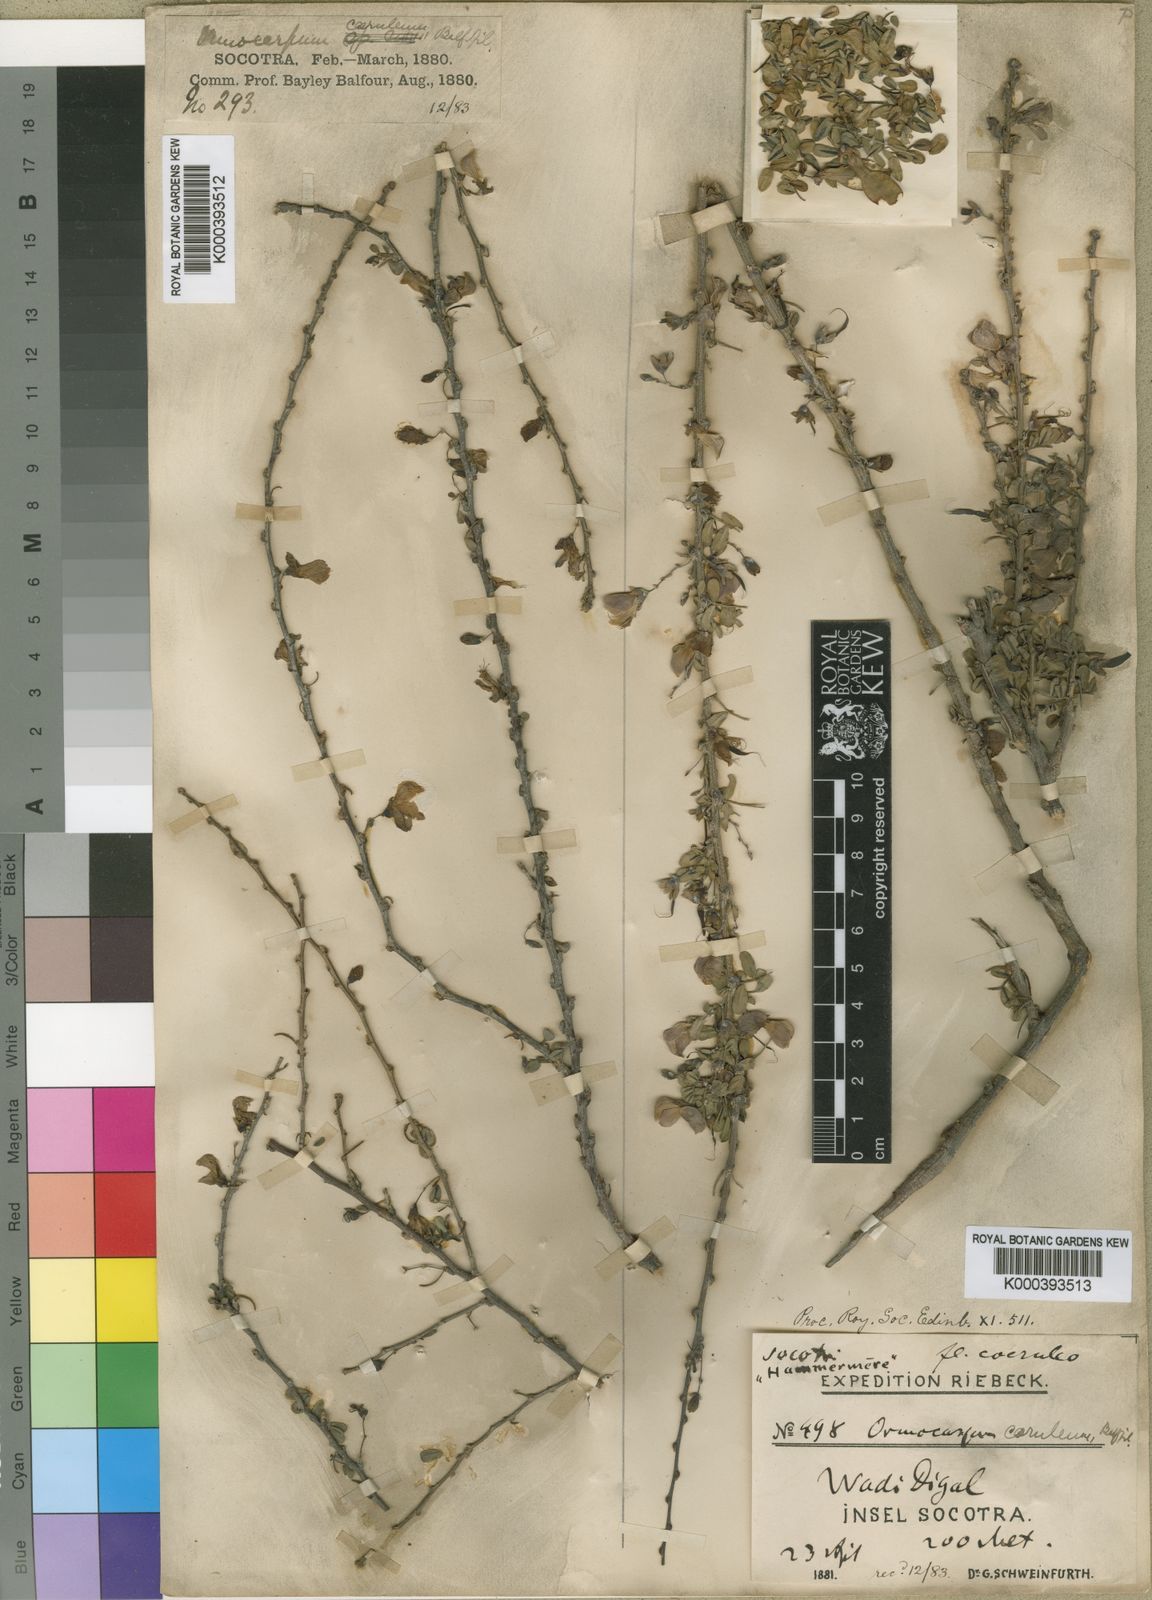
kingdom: Plantae
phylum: Tracheophyta
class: Magnoliopsida
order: Fabales
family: Fabaceae
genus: Zygocarpum
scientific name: Zygocarpum caeruleum
